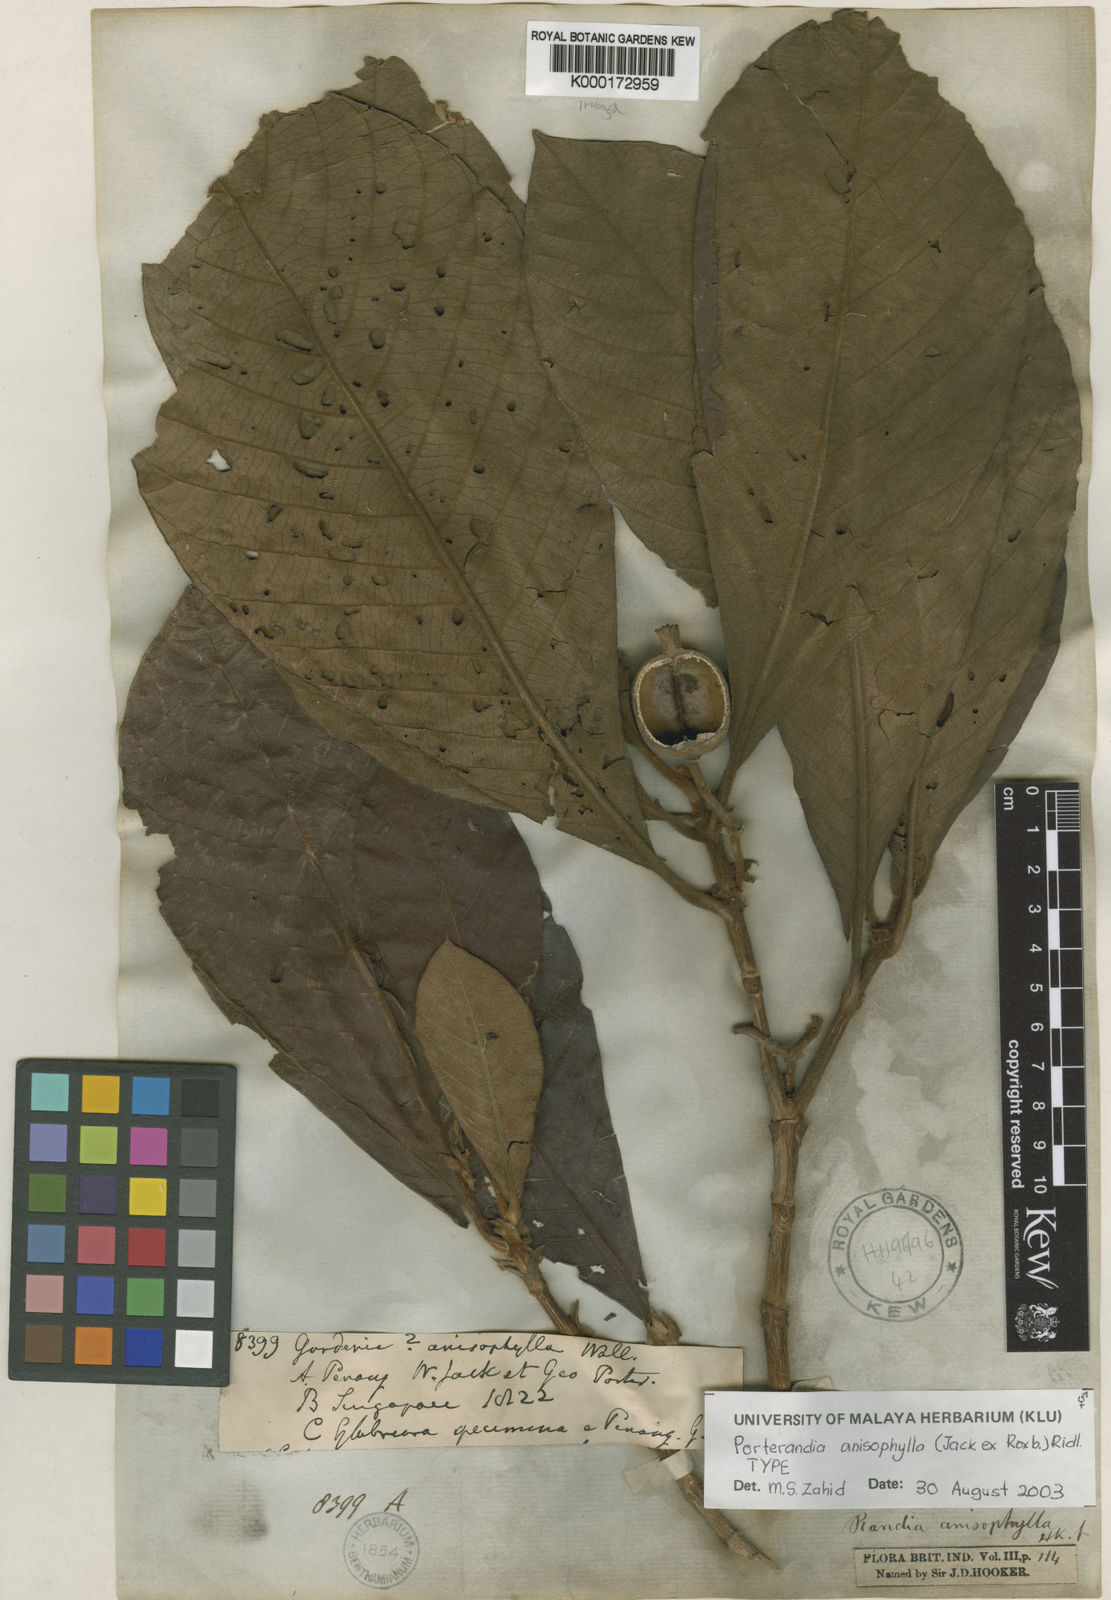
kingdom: Plantae
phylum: Tracheophyta
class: Magnoliopsida
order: Gentianales
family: Rubiaceae
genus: Porterandia
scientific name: Porterandia anisophylla
